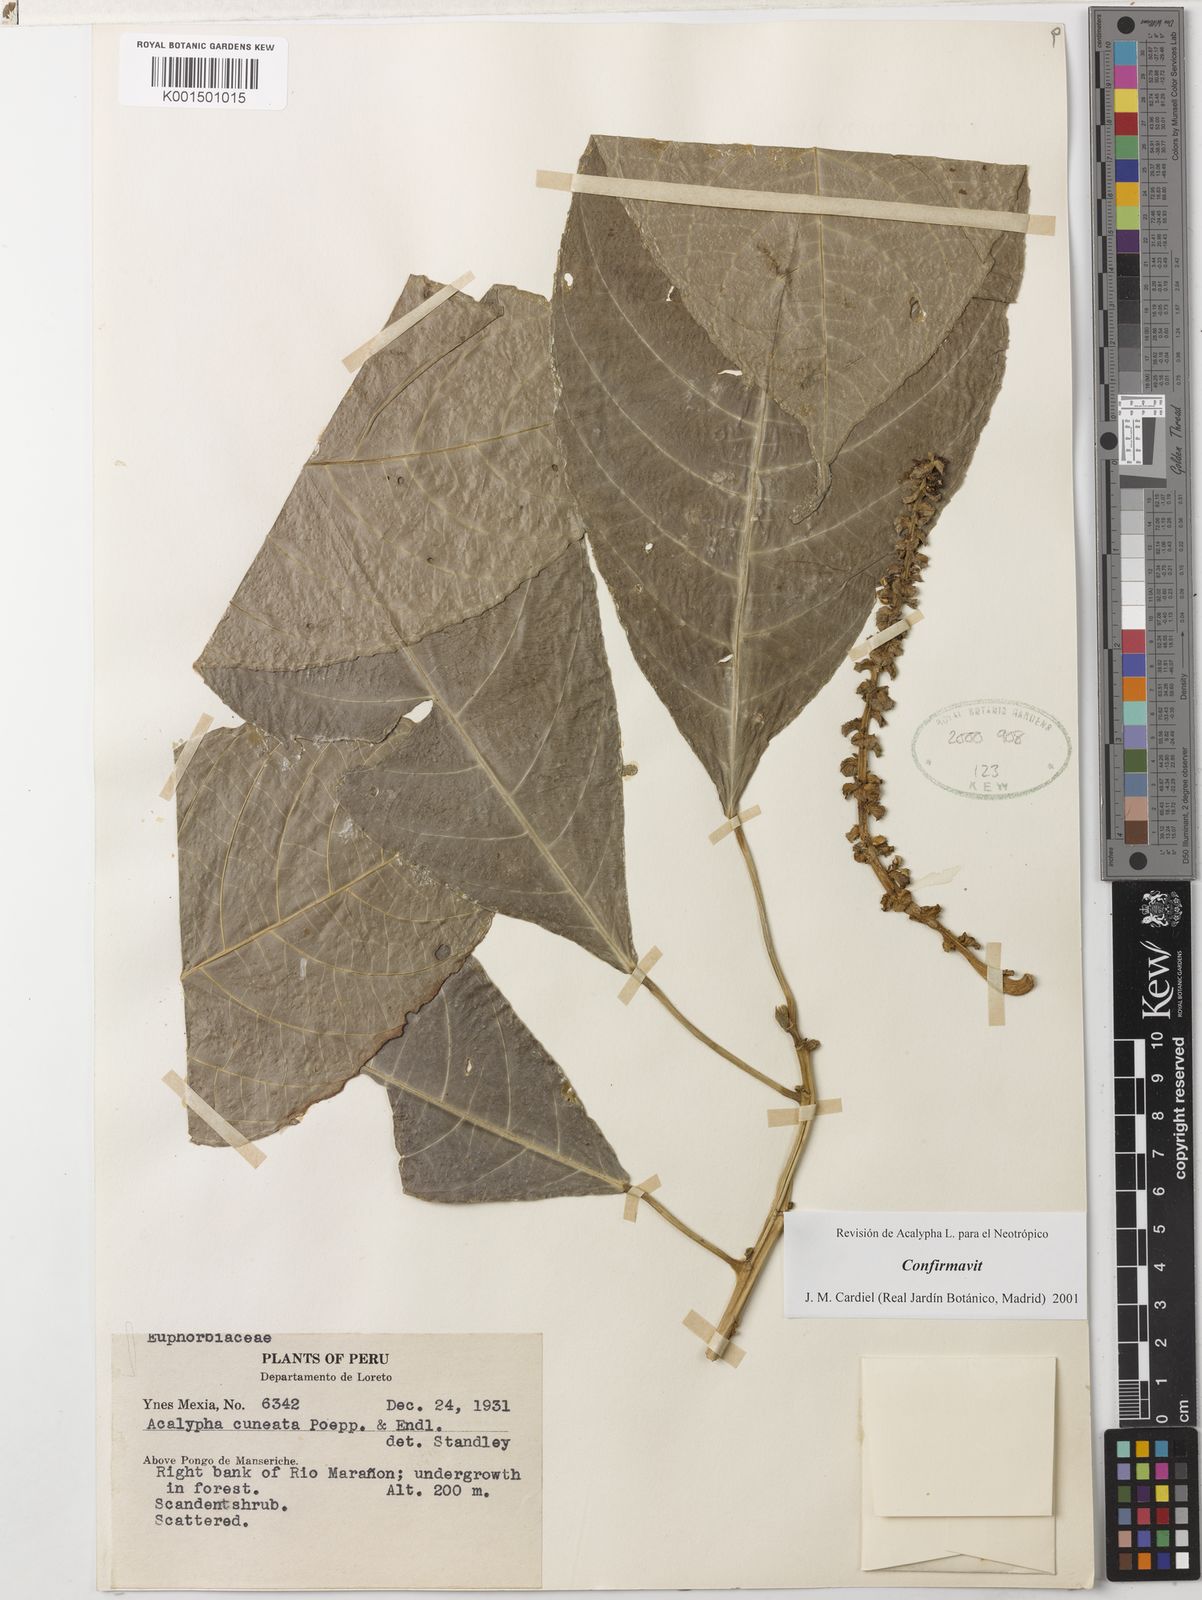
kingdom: Plantae
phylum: Tracheophyta
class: Magnoliopsida
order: Malpighiales
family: Euphorbiaceae
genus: Acalypha
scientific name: Acalypha cuneata
